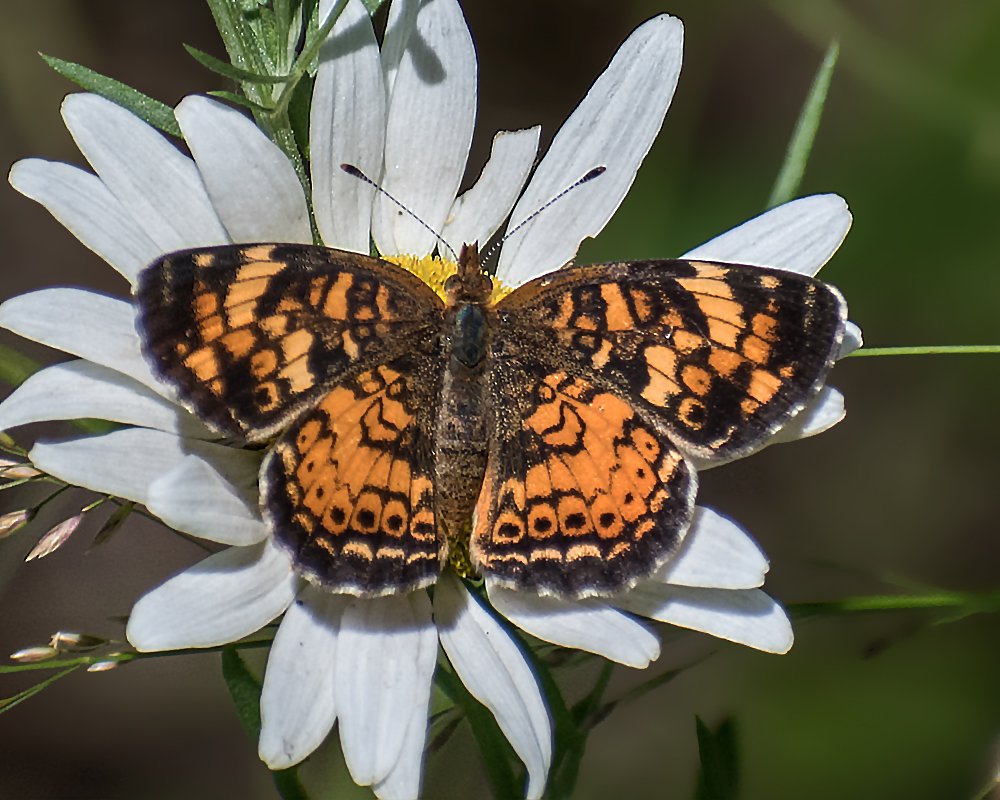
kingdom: Animalia
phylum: Arthropoda
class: Insecta
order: Lepidoptera
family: Nymphalidae
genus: Phyciodes
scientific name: Phyciodes tharos
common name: Northern Crescent
